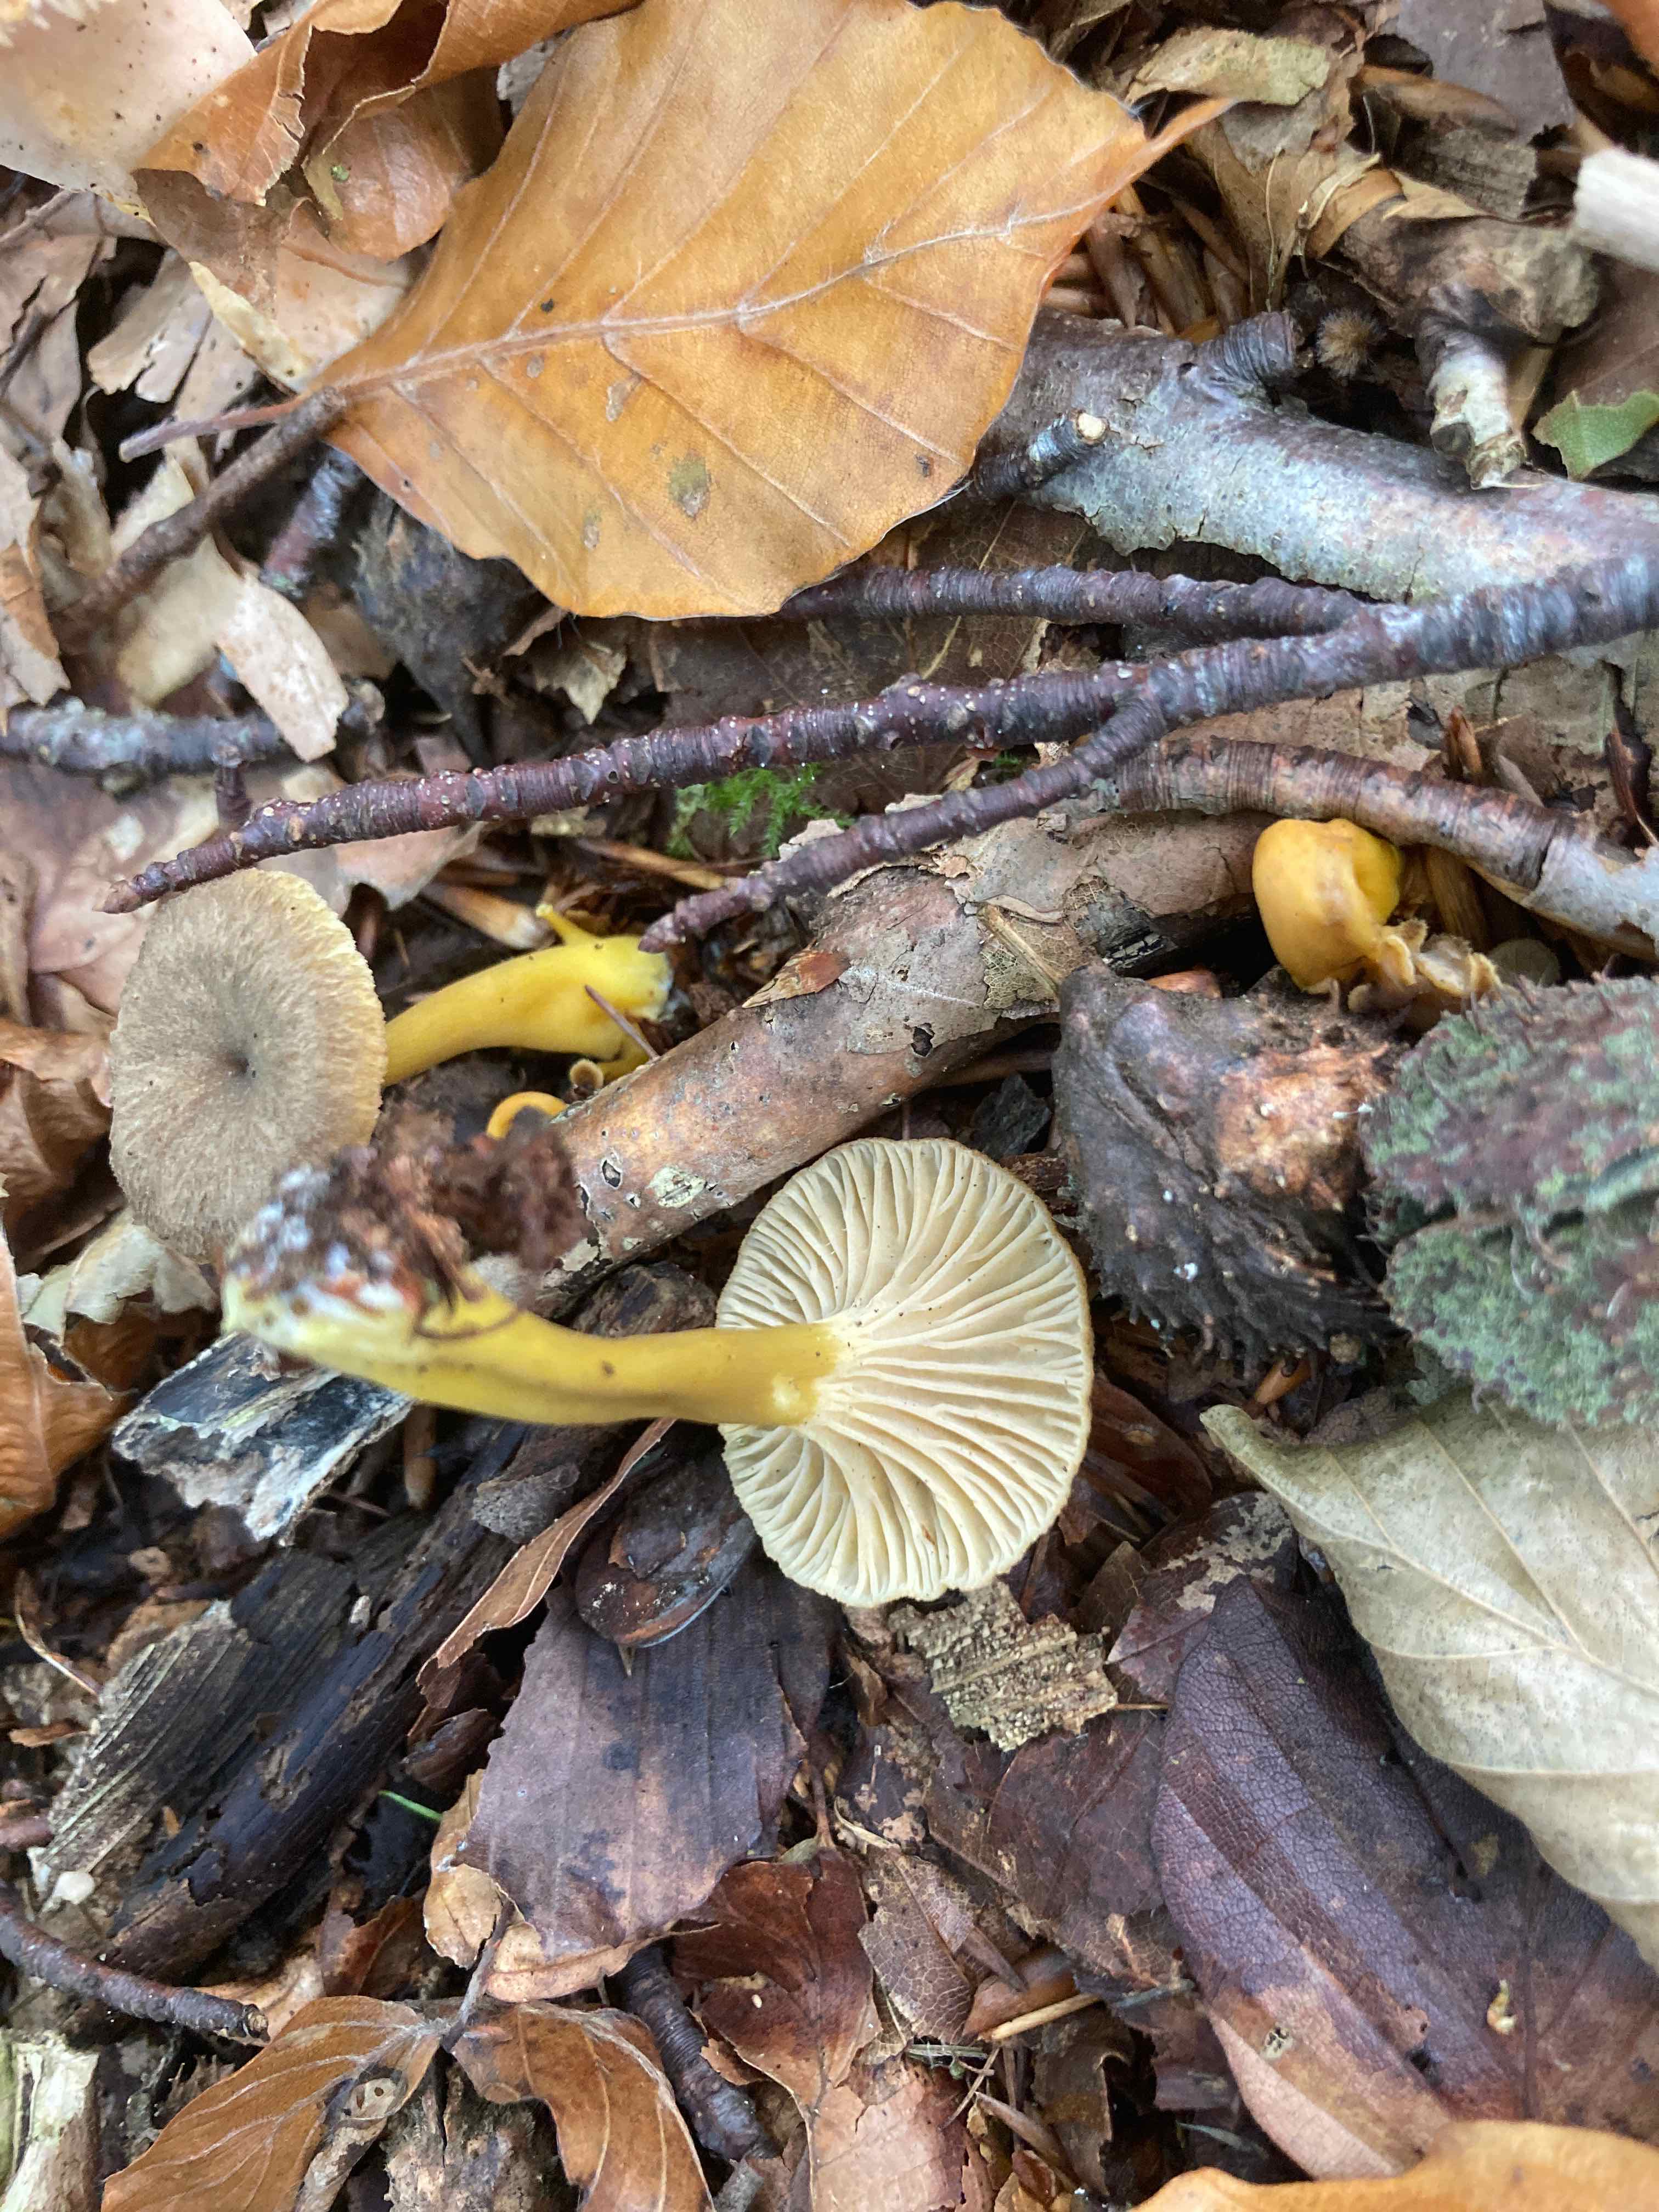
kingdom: Fungi
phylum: Basidiomycota
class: Agaricomycetes
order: Cantharellales
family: Hydnaceae
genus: Craterellus
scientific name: Craterellus tubaeformis
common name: tragt-kantarel
